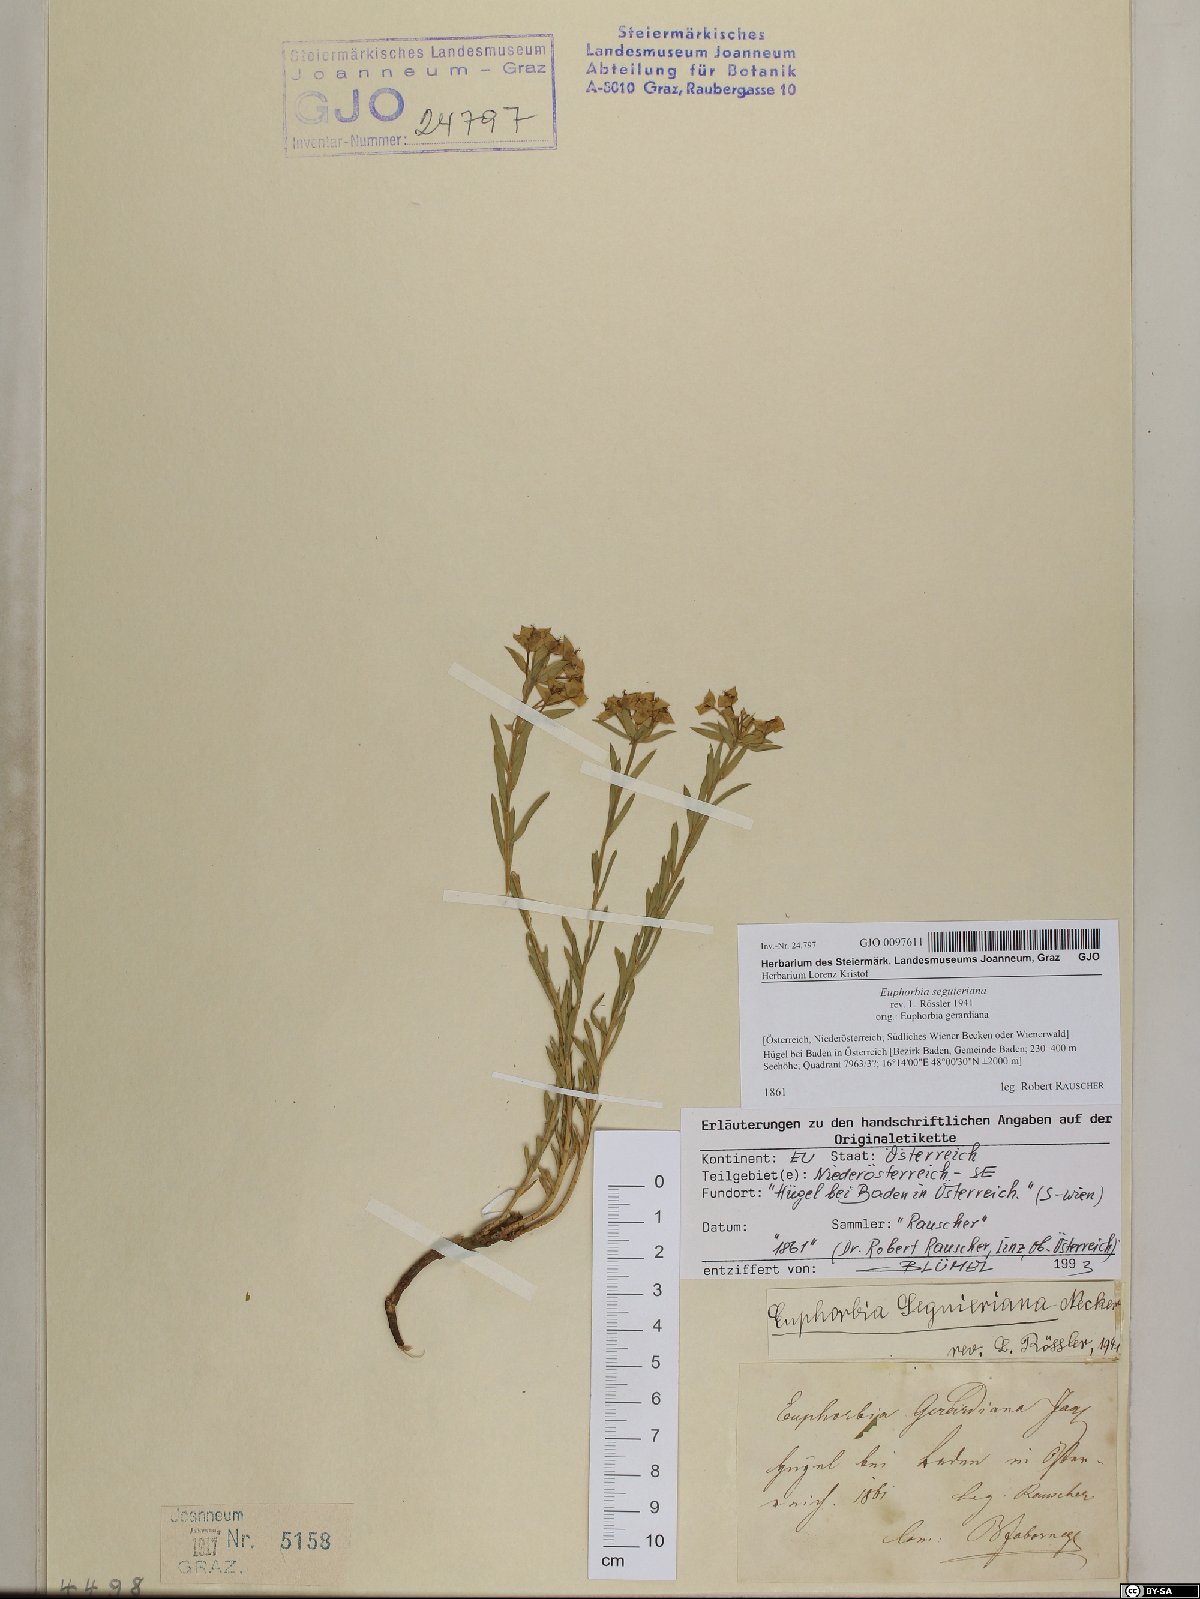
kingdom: Plantae
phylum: Tracheophyta
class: Magnoliopsida
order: Malpighiales
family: Euphorbiaceae
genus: Euphorbia
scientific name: Euphorbia seguieriana
